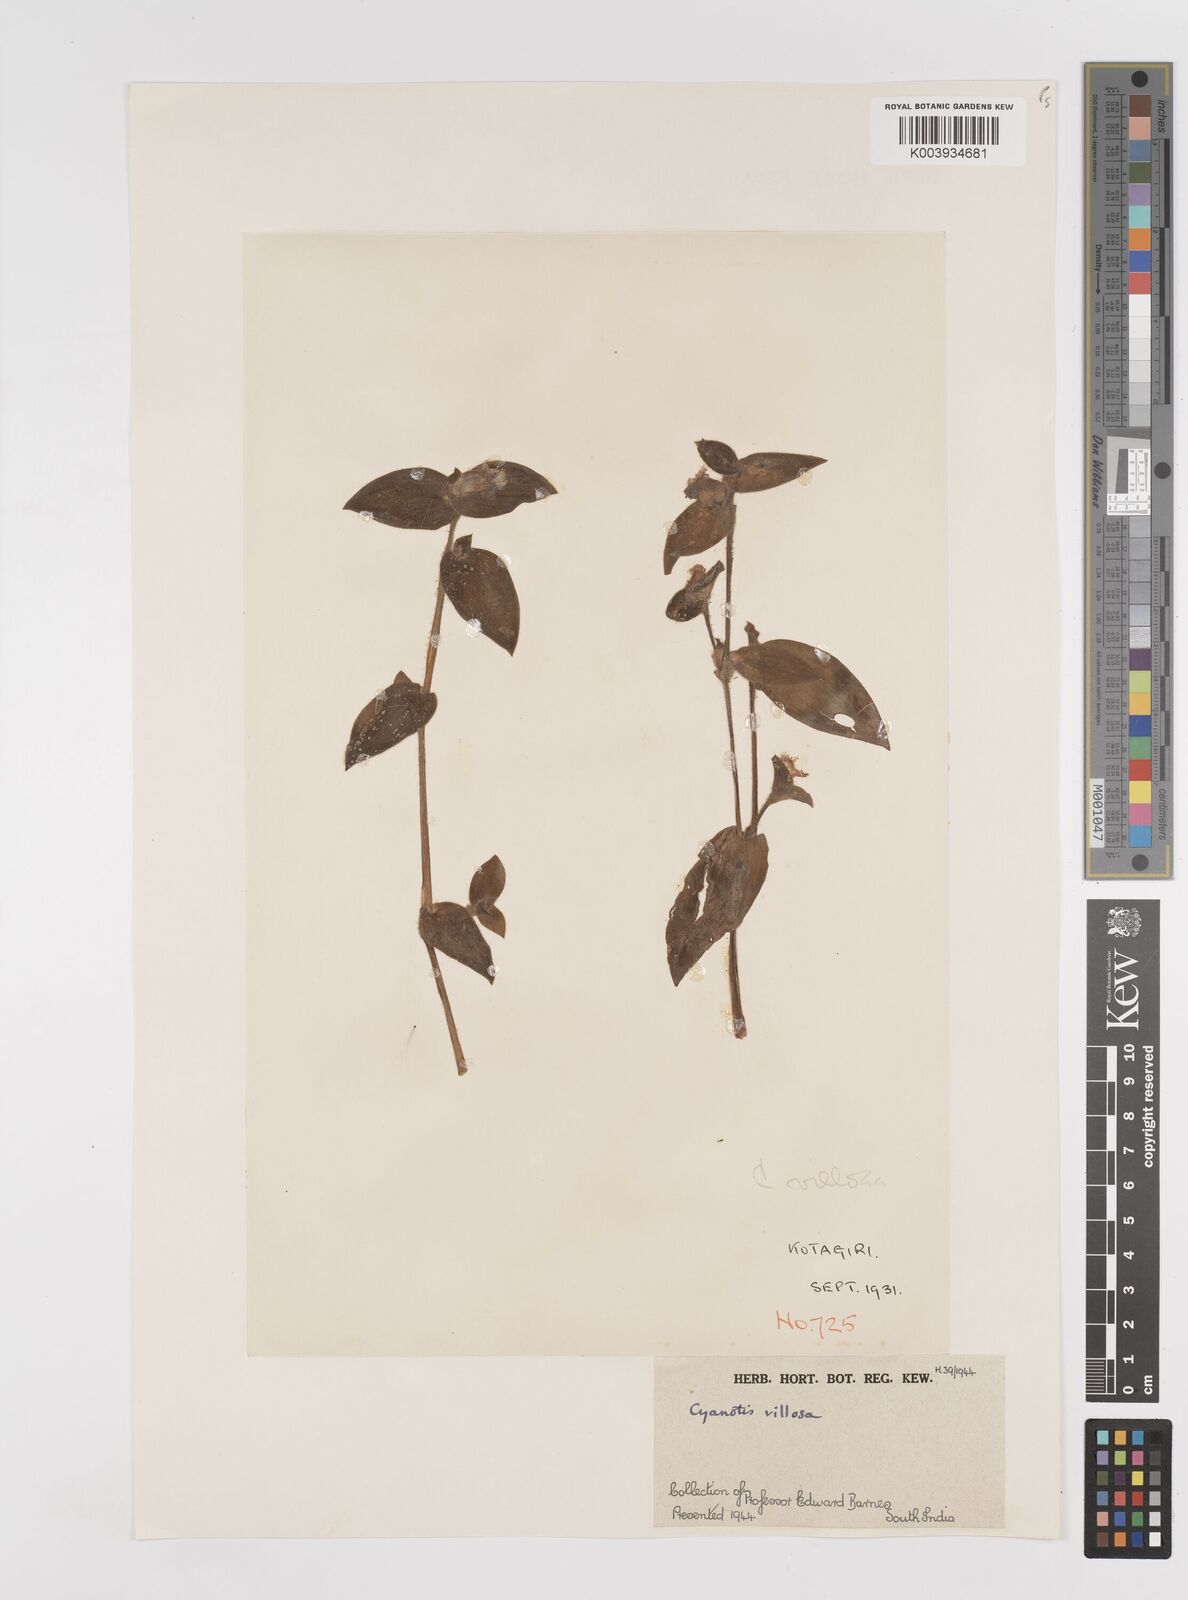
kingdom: Plantae
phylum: Tracheophyta
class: Liliopsida
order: Commelinales
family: Commelinaceae
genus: Cyanotis
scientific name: Cyanotis villosa
